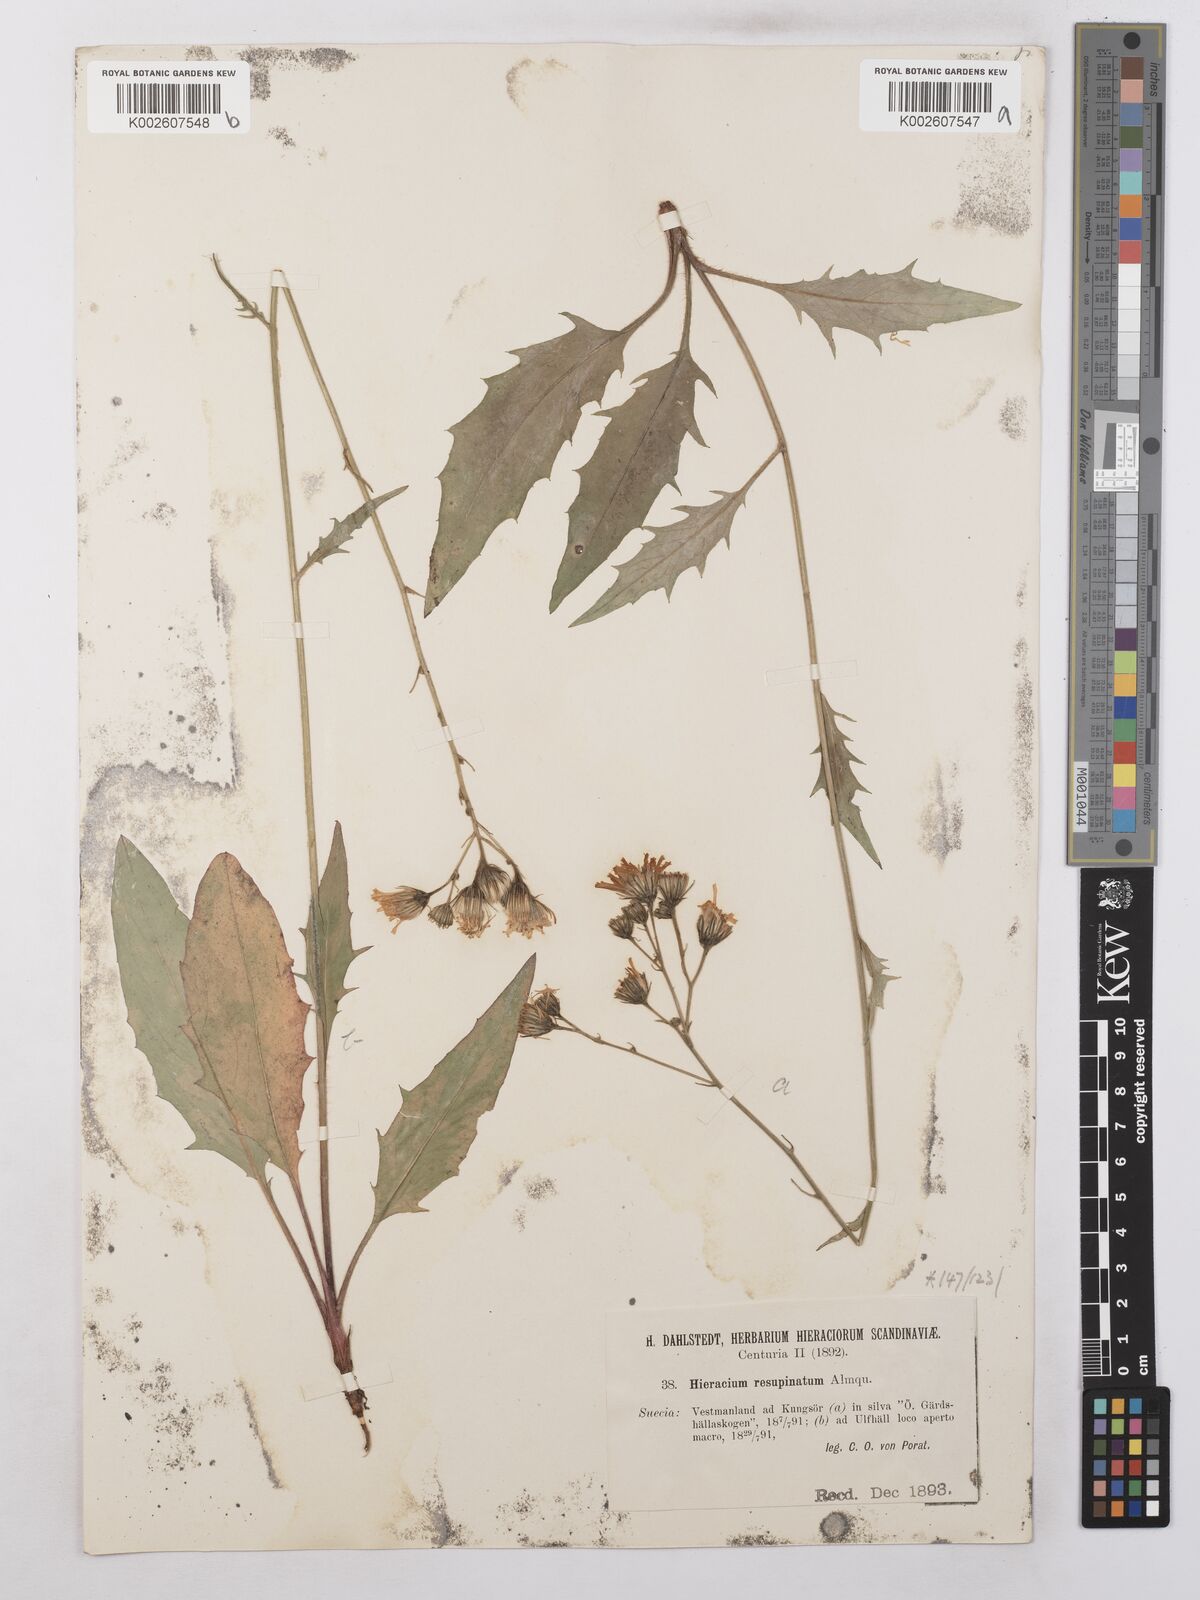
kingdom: Plantae
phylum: Tracheophyta
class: Magnoliopsida
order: Asterales
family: Asteraceae
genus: Hieracium
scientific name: Hieracium caesium
